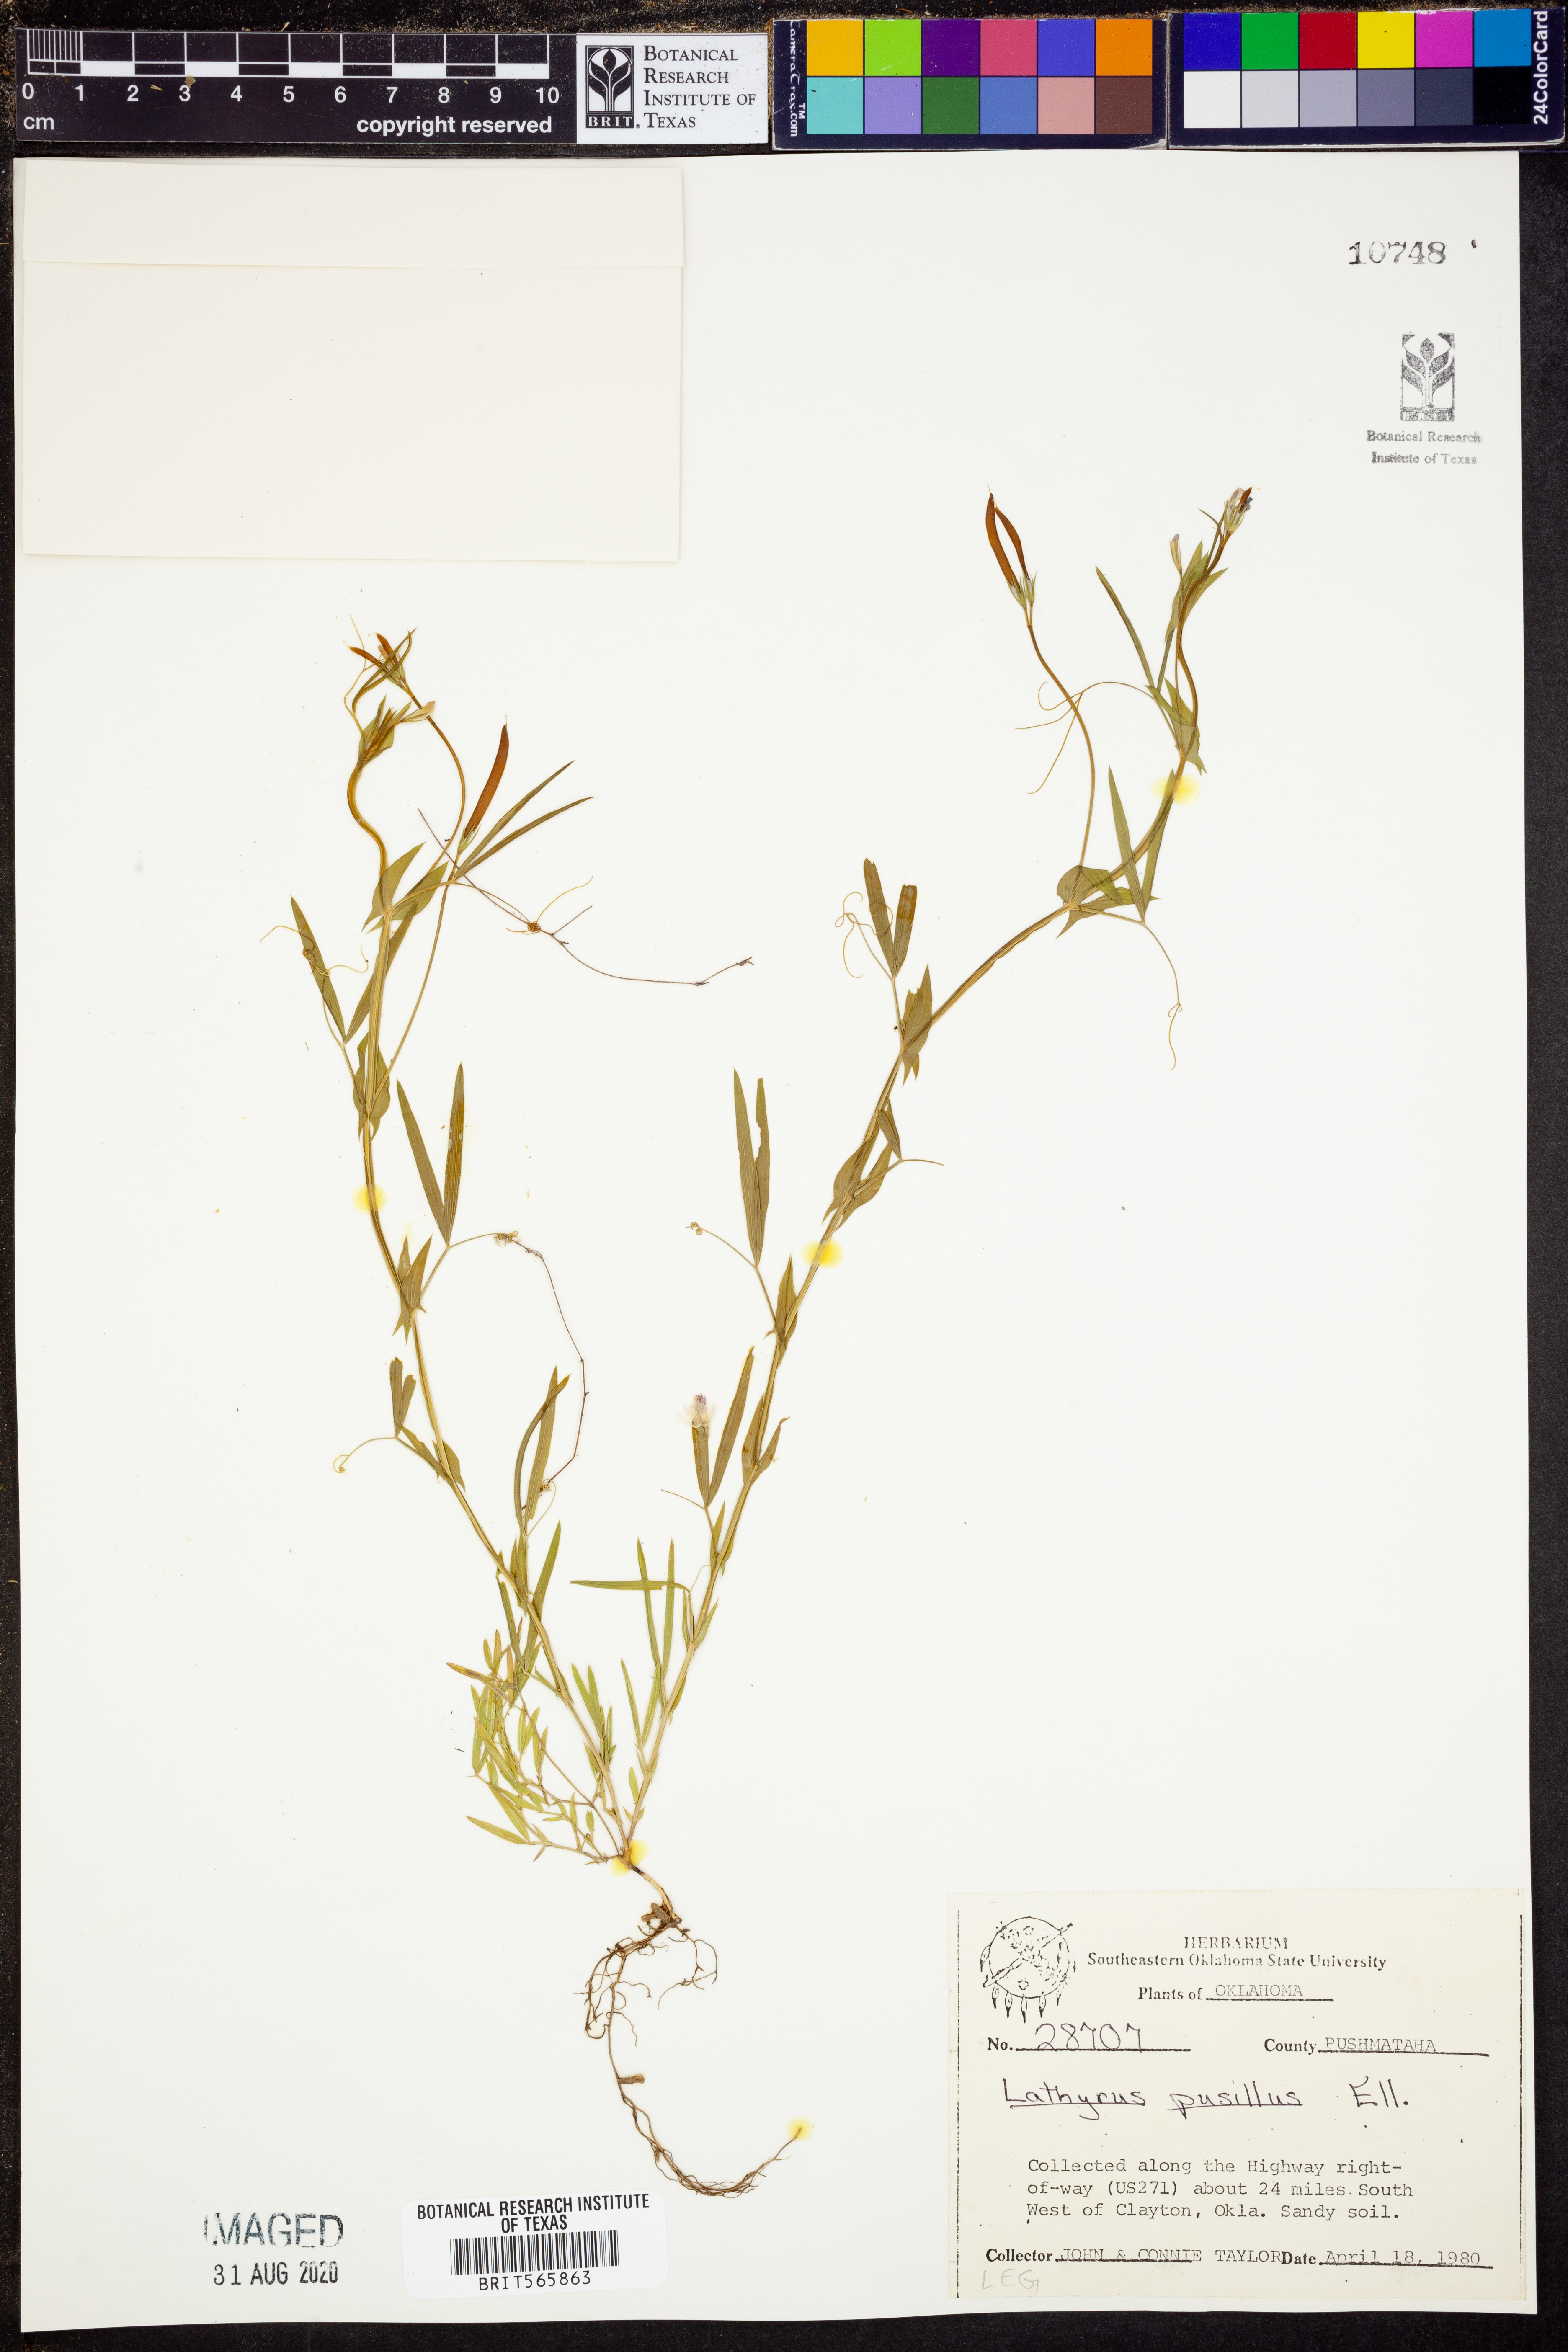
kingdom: Plantae
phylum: Tracheophyta
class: Magnoliopsida
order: Fabales
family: Fabaceae
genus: Lathyrus
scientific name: Lathyrus pusillus
